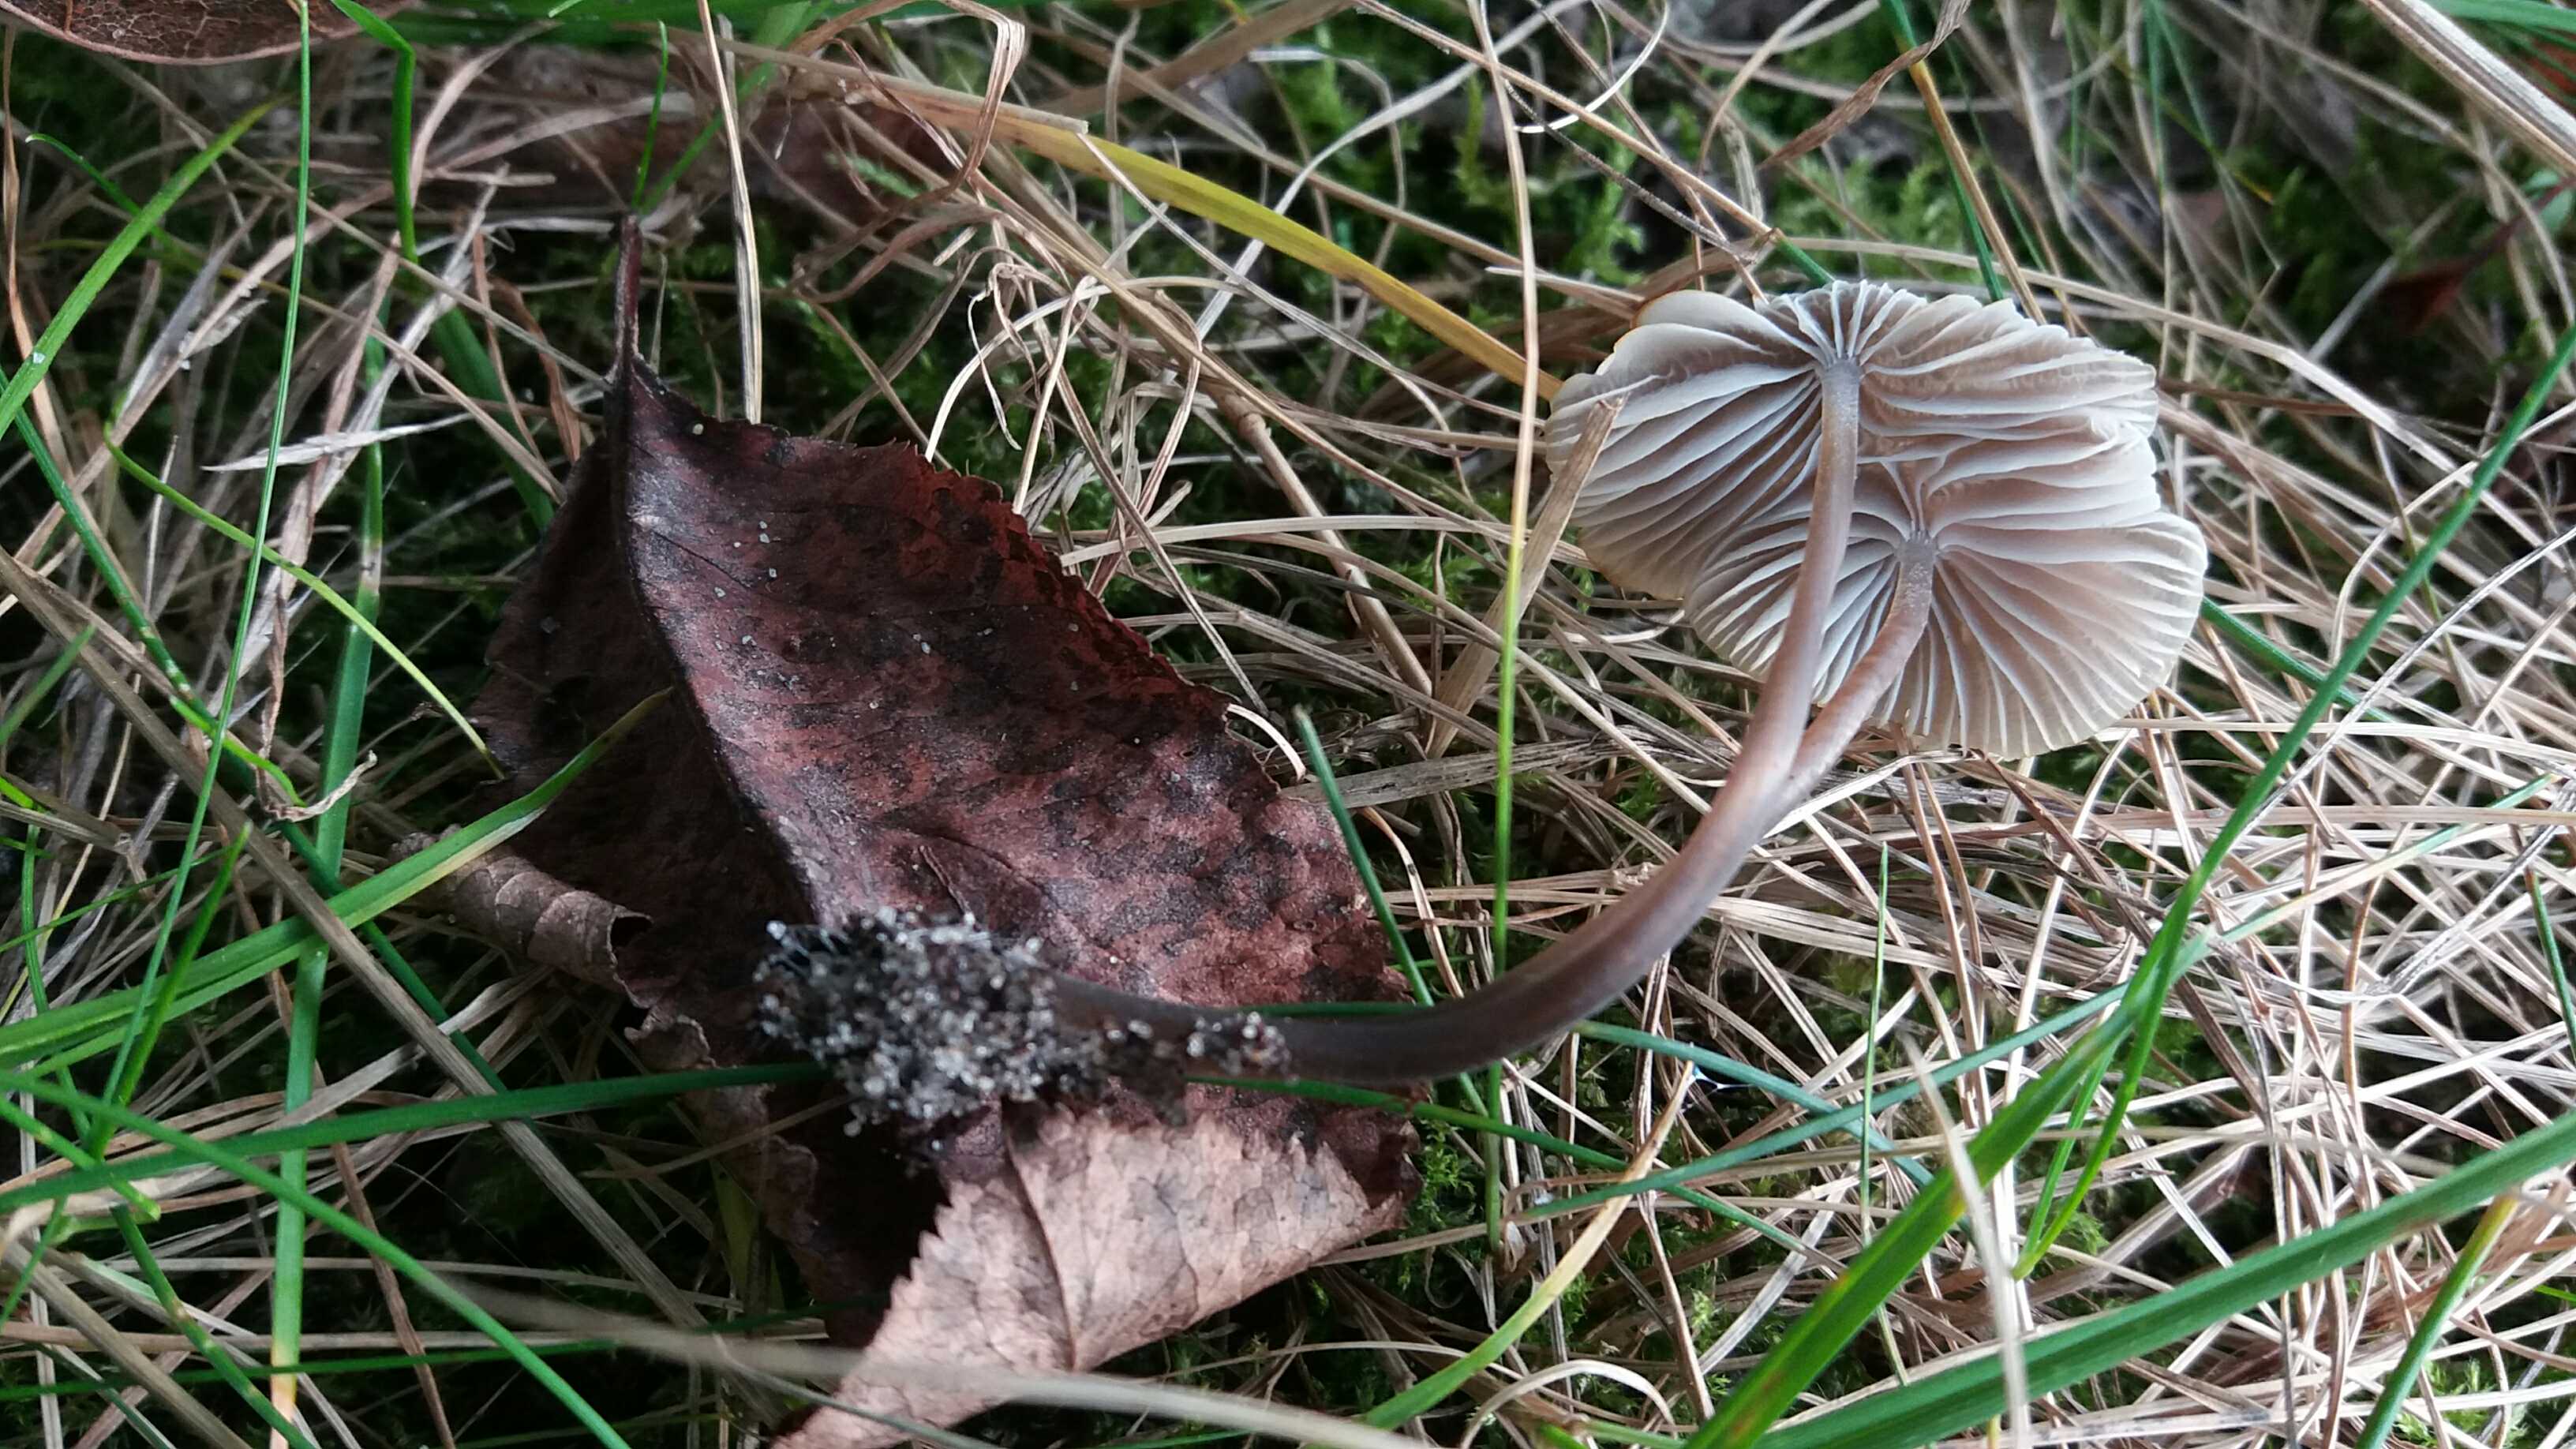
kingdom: Fungi
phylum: Basidiomycota
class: Agaricomycetes
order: Agaricales
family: Mycenaceae
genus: Mycena
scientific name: Mycena leptocephala
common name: klor-huesvamp
